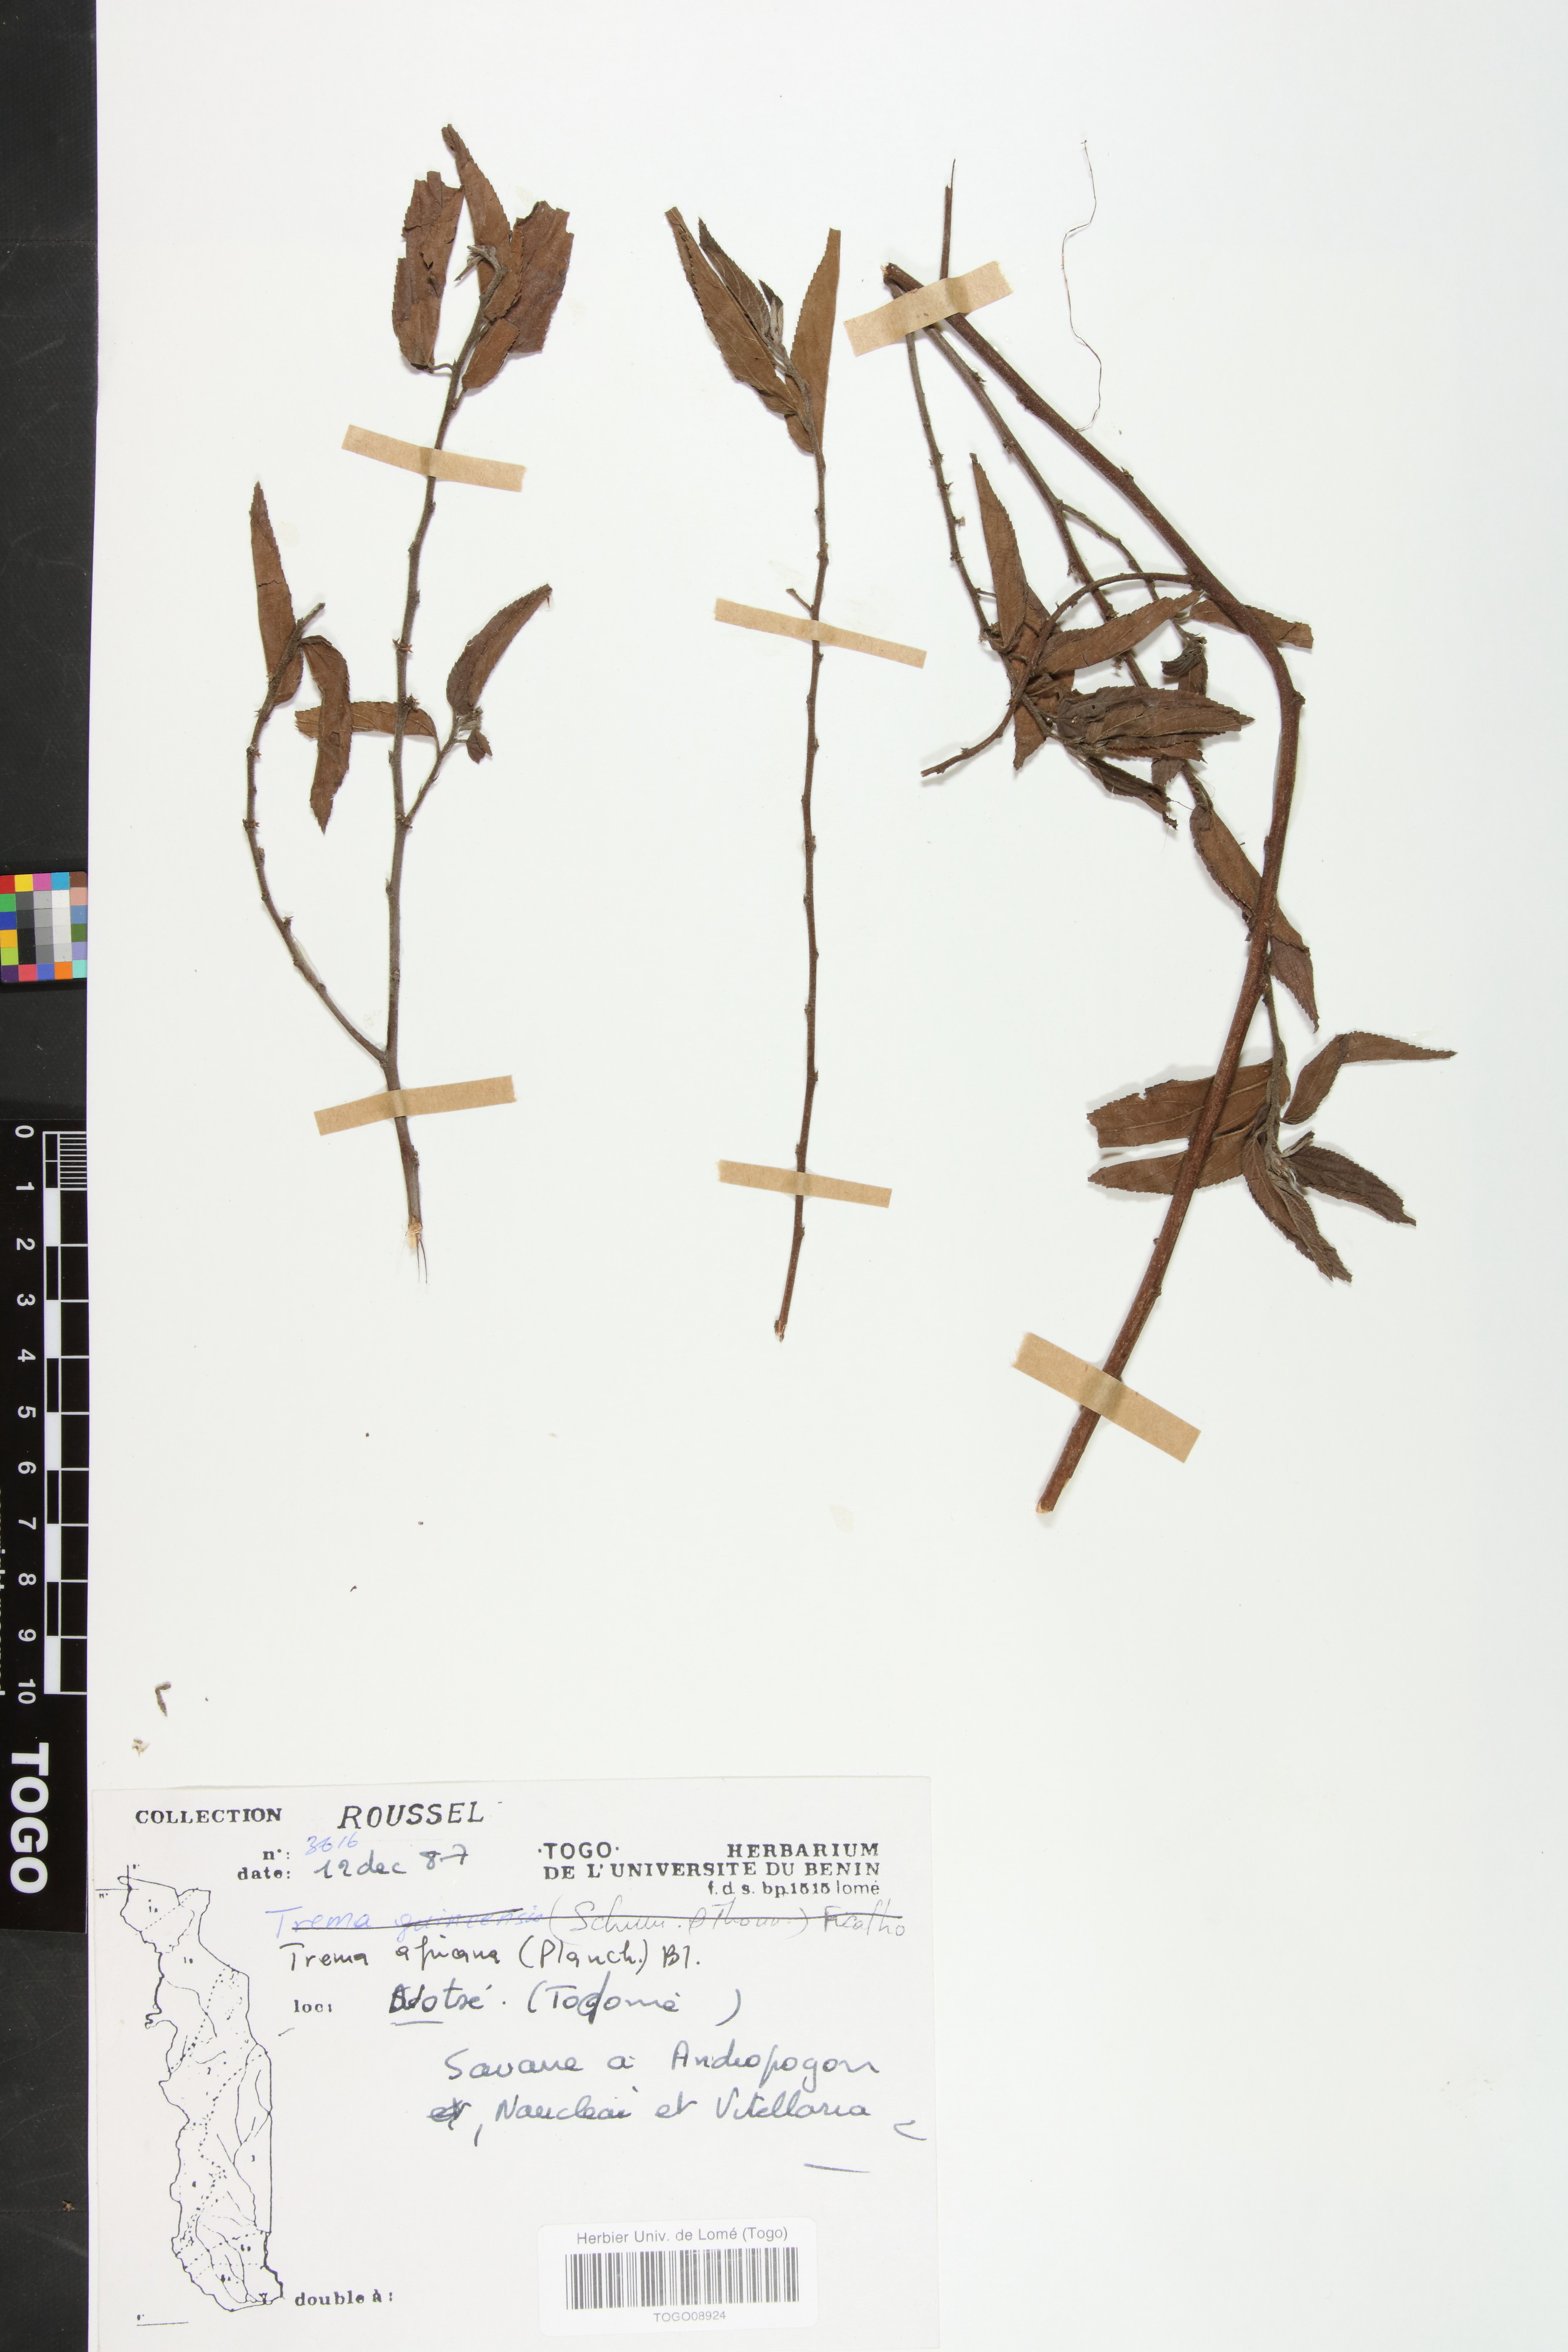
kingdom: Plantae
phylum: Tracheophyta
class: Magnoliopsida
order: Rosales
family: Cannabaceae
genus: Trema
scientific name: Trema orientale
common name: Indian charcoal tree
